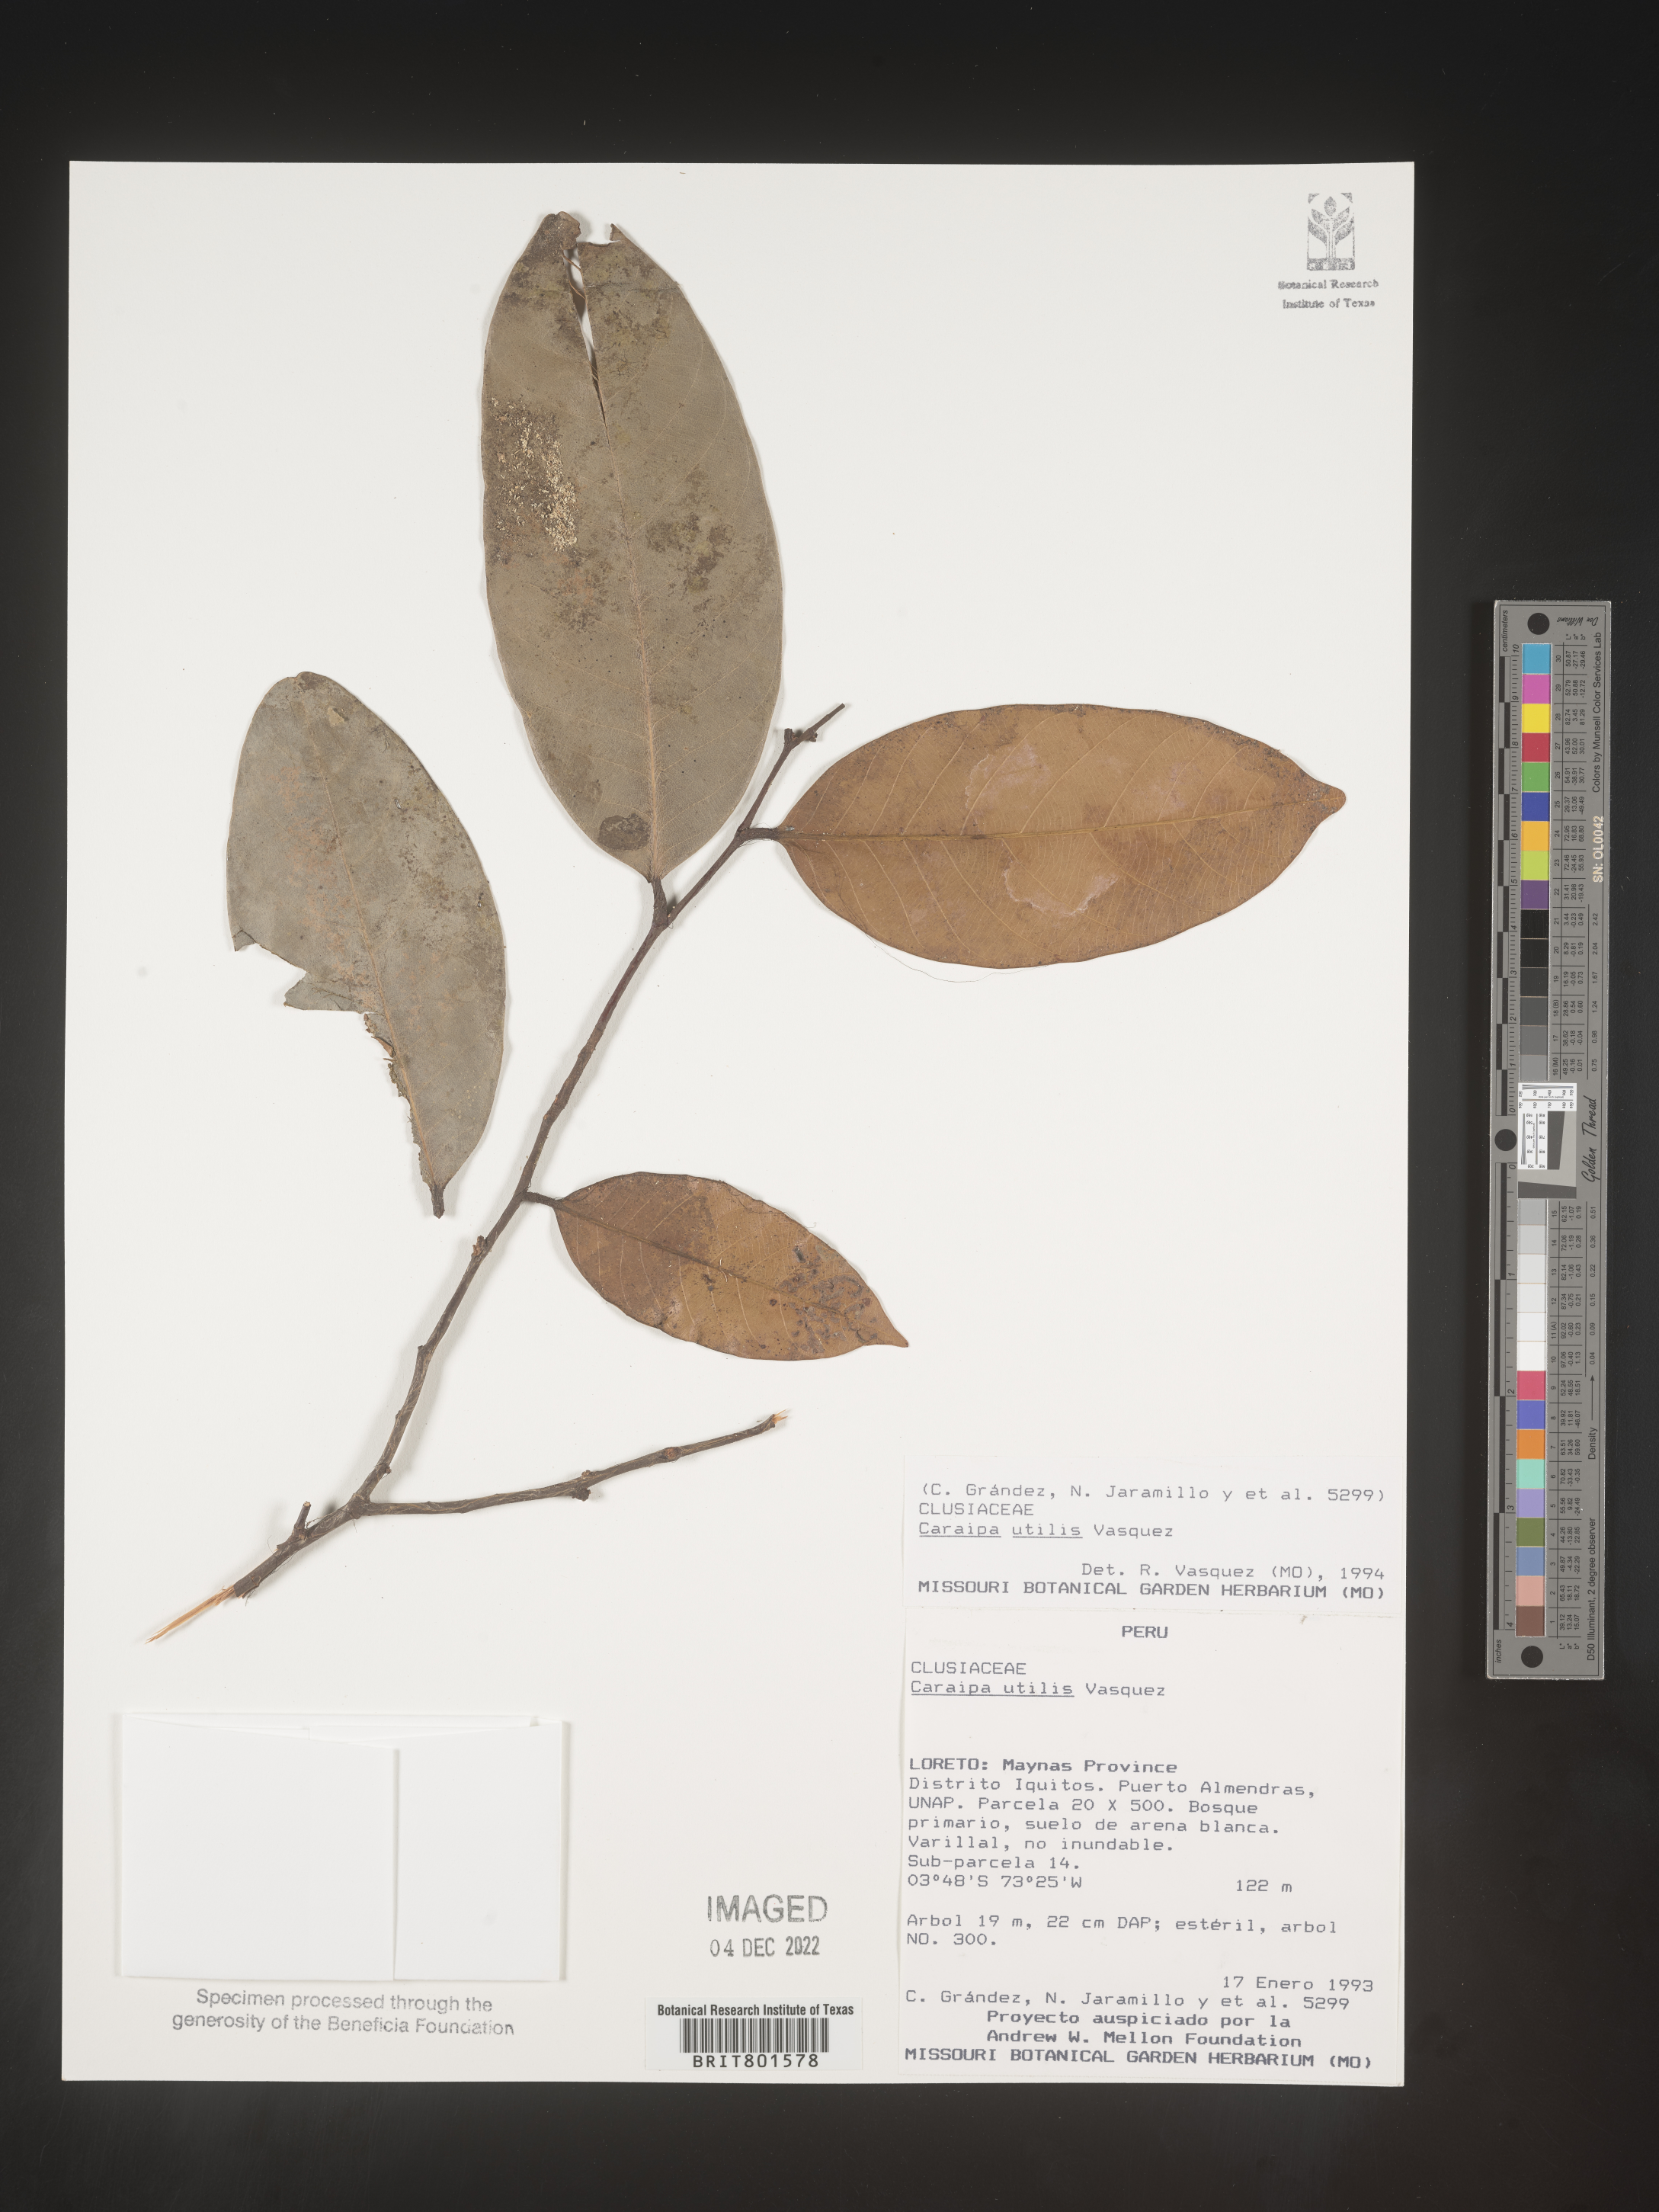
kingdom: Plantae
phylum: Tracheophyta
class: Magnoliopsida
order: Malpighiales
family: Calophyllaceae
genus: Caraipa
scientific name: Caraipa utilis
